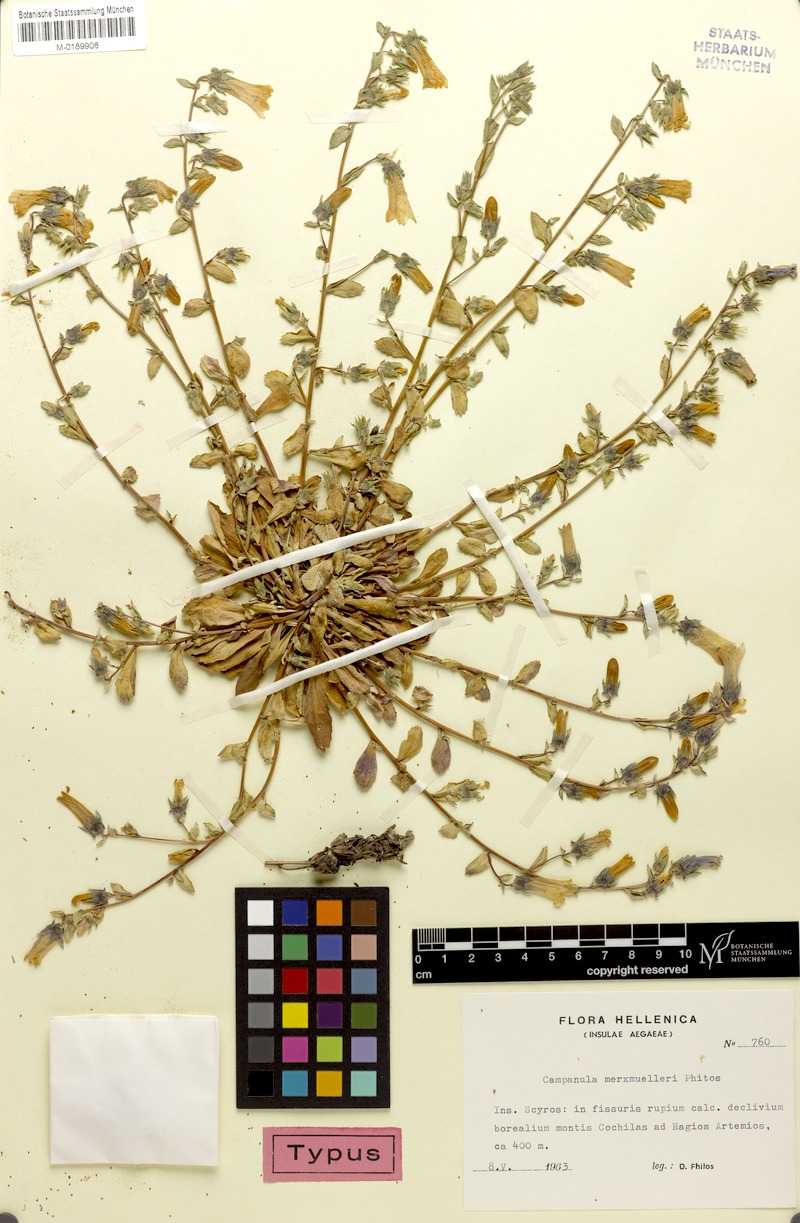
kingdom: Plantae
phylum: Tracheophyta
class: Magnoliopsida
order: Asterales
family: Campanulaceae
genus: Campanula
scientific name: Campanula merxmuelleri
